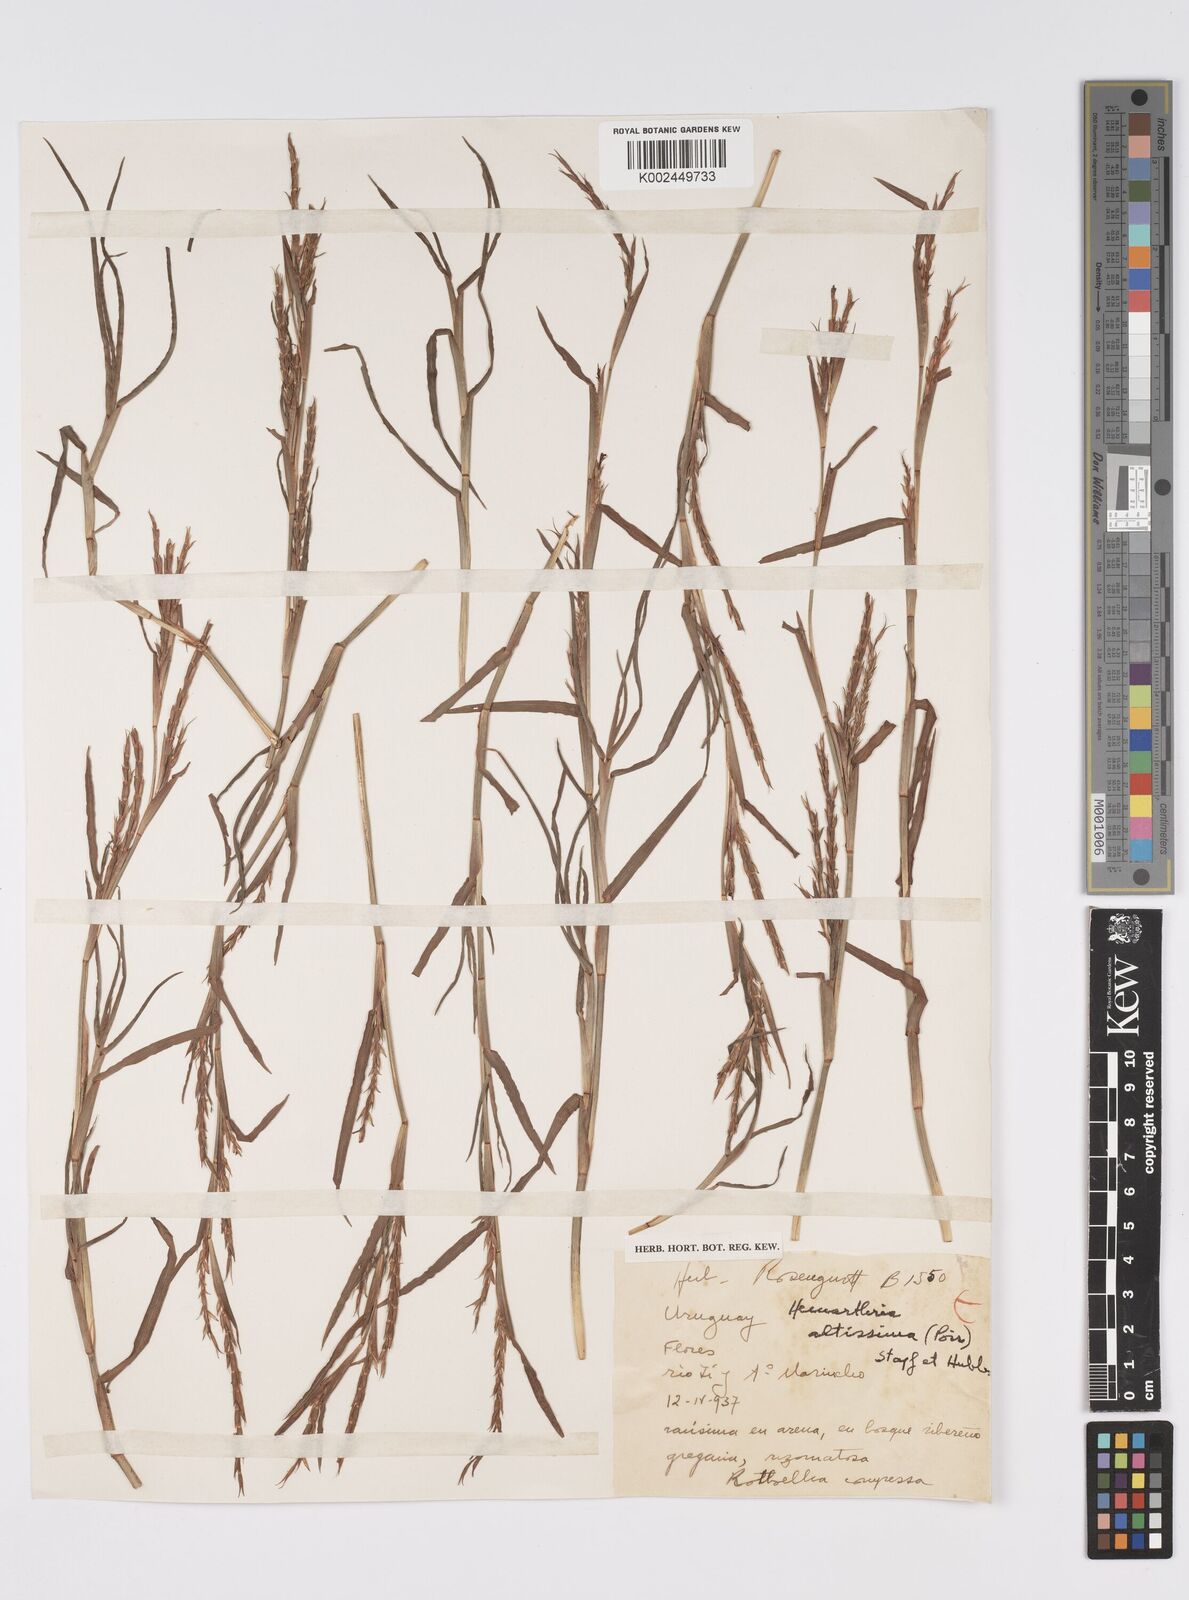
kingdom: Plantae
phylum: Tracheophyta
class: Liliopsida
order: Poales
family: Poaceae
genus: Hemarthria
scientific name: Hemarthria altissima
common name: African jointgrass
